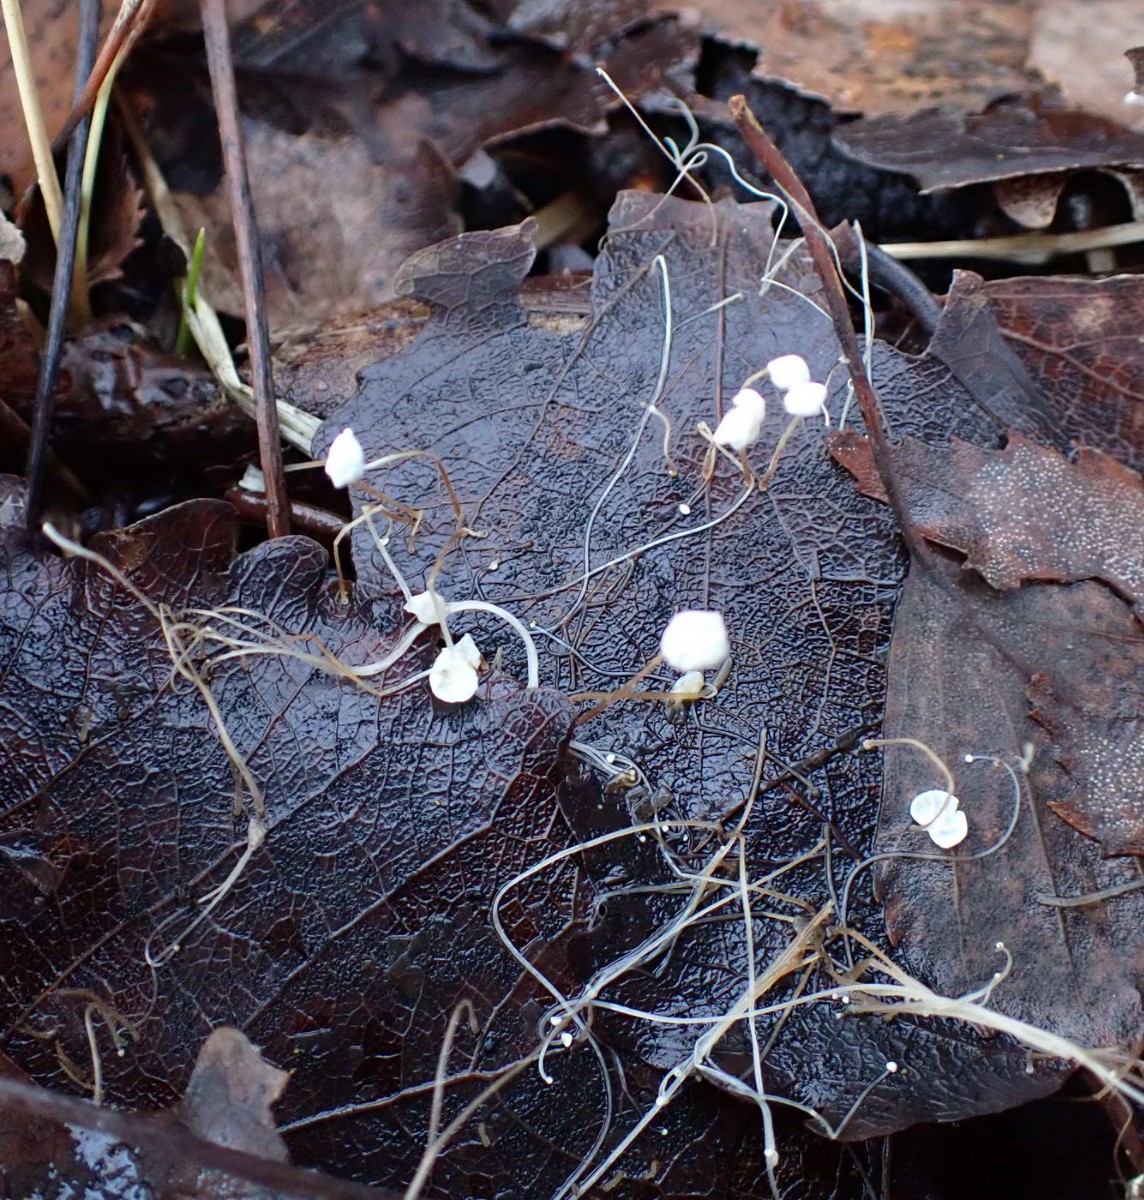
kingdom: Fungi
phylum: Basidiomycota
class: Agaricomycetes
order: Agaricales
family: Marasmiaceae
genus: Marasmius
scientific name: Marasmius epiphyllus
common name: blad-bruskhat
